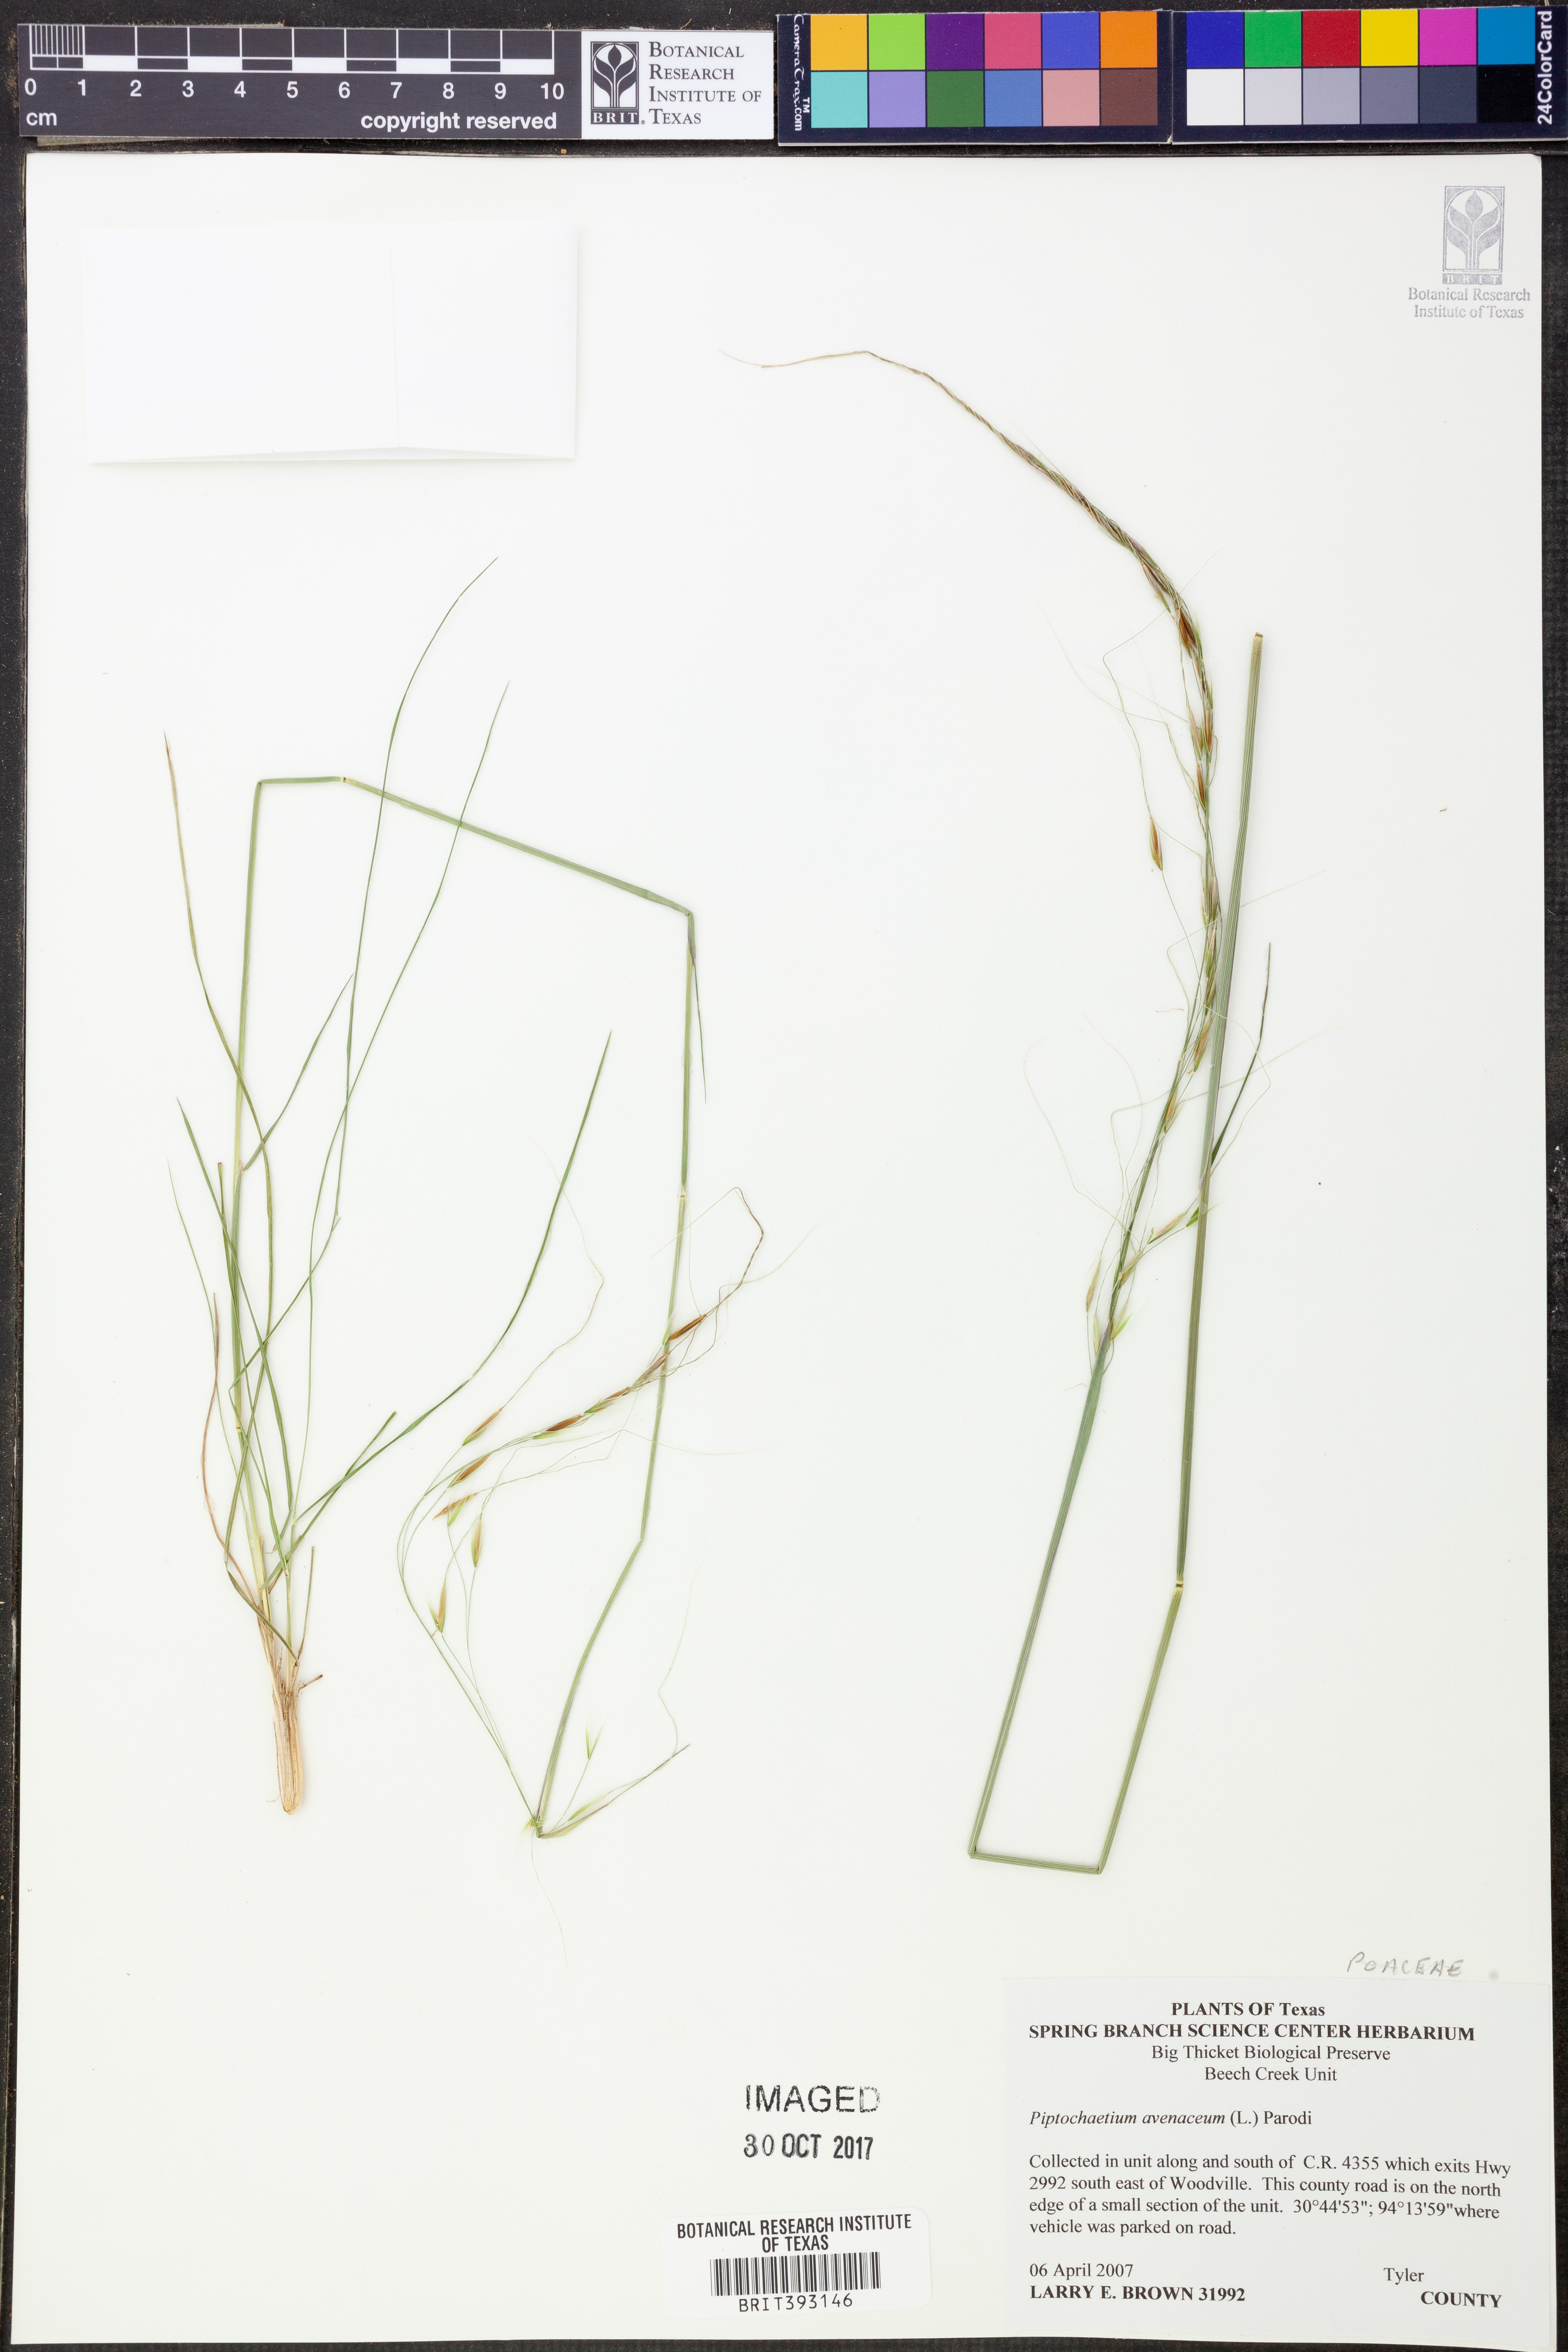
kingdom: Plantae
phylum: Tracheophyta
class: Liliopsida
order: Poales
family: Poaceae
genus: Piptochaetium
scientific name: Piptochaetium avenaceum
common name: Black bunchgrass
